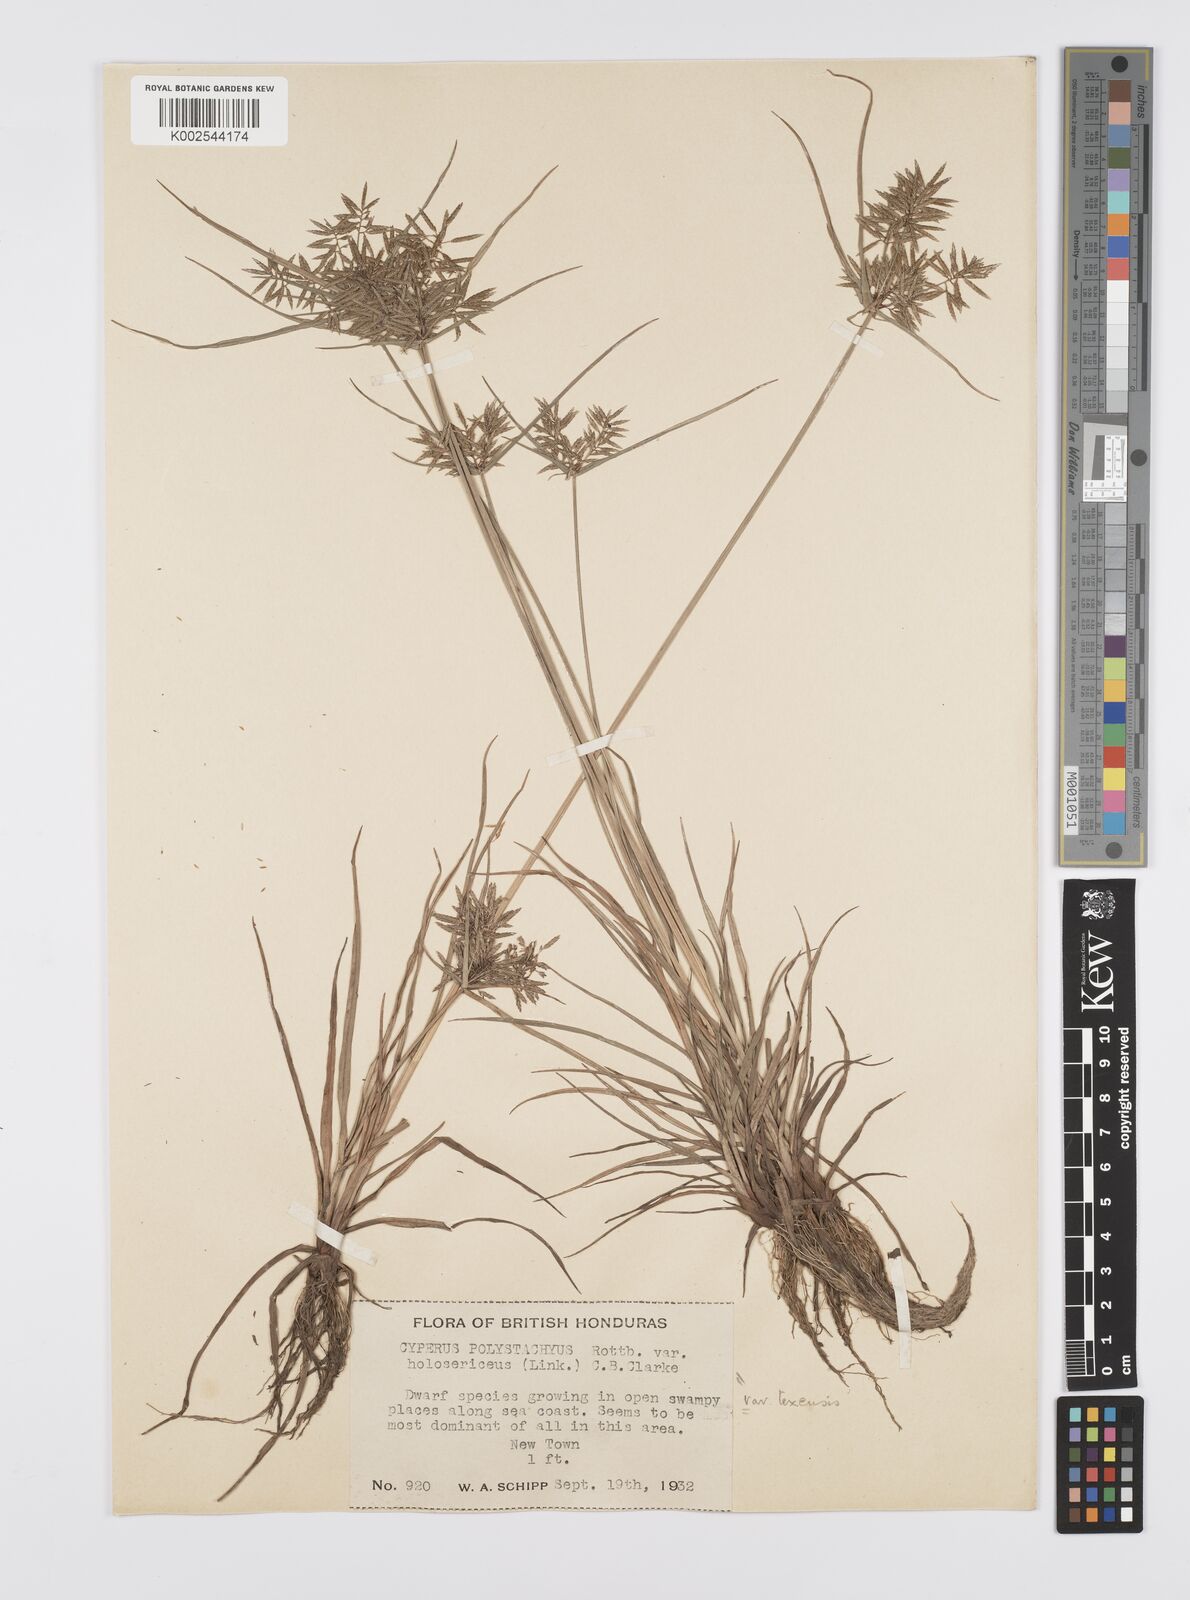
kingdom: Plantae
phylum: Tracheophyta
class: Liliopsida
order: Poales
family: Cyperaceae
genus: Cyperus
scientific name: Cyperus polystachyos
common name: Bunchy flat sedge
